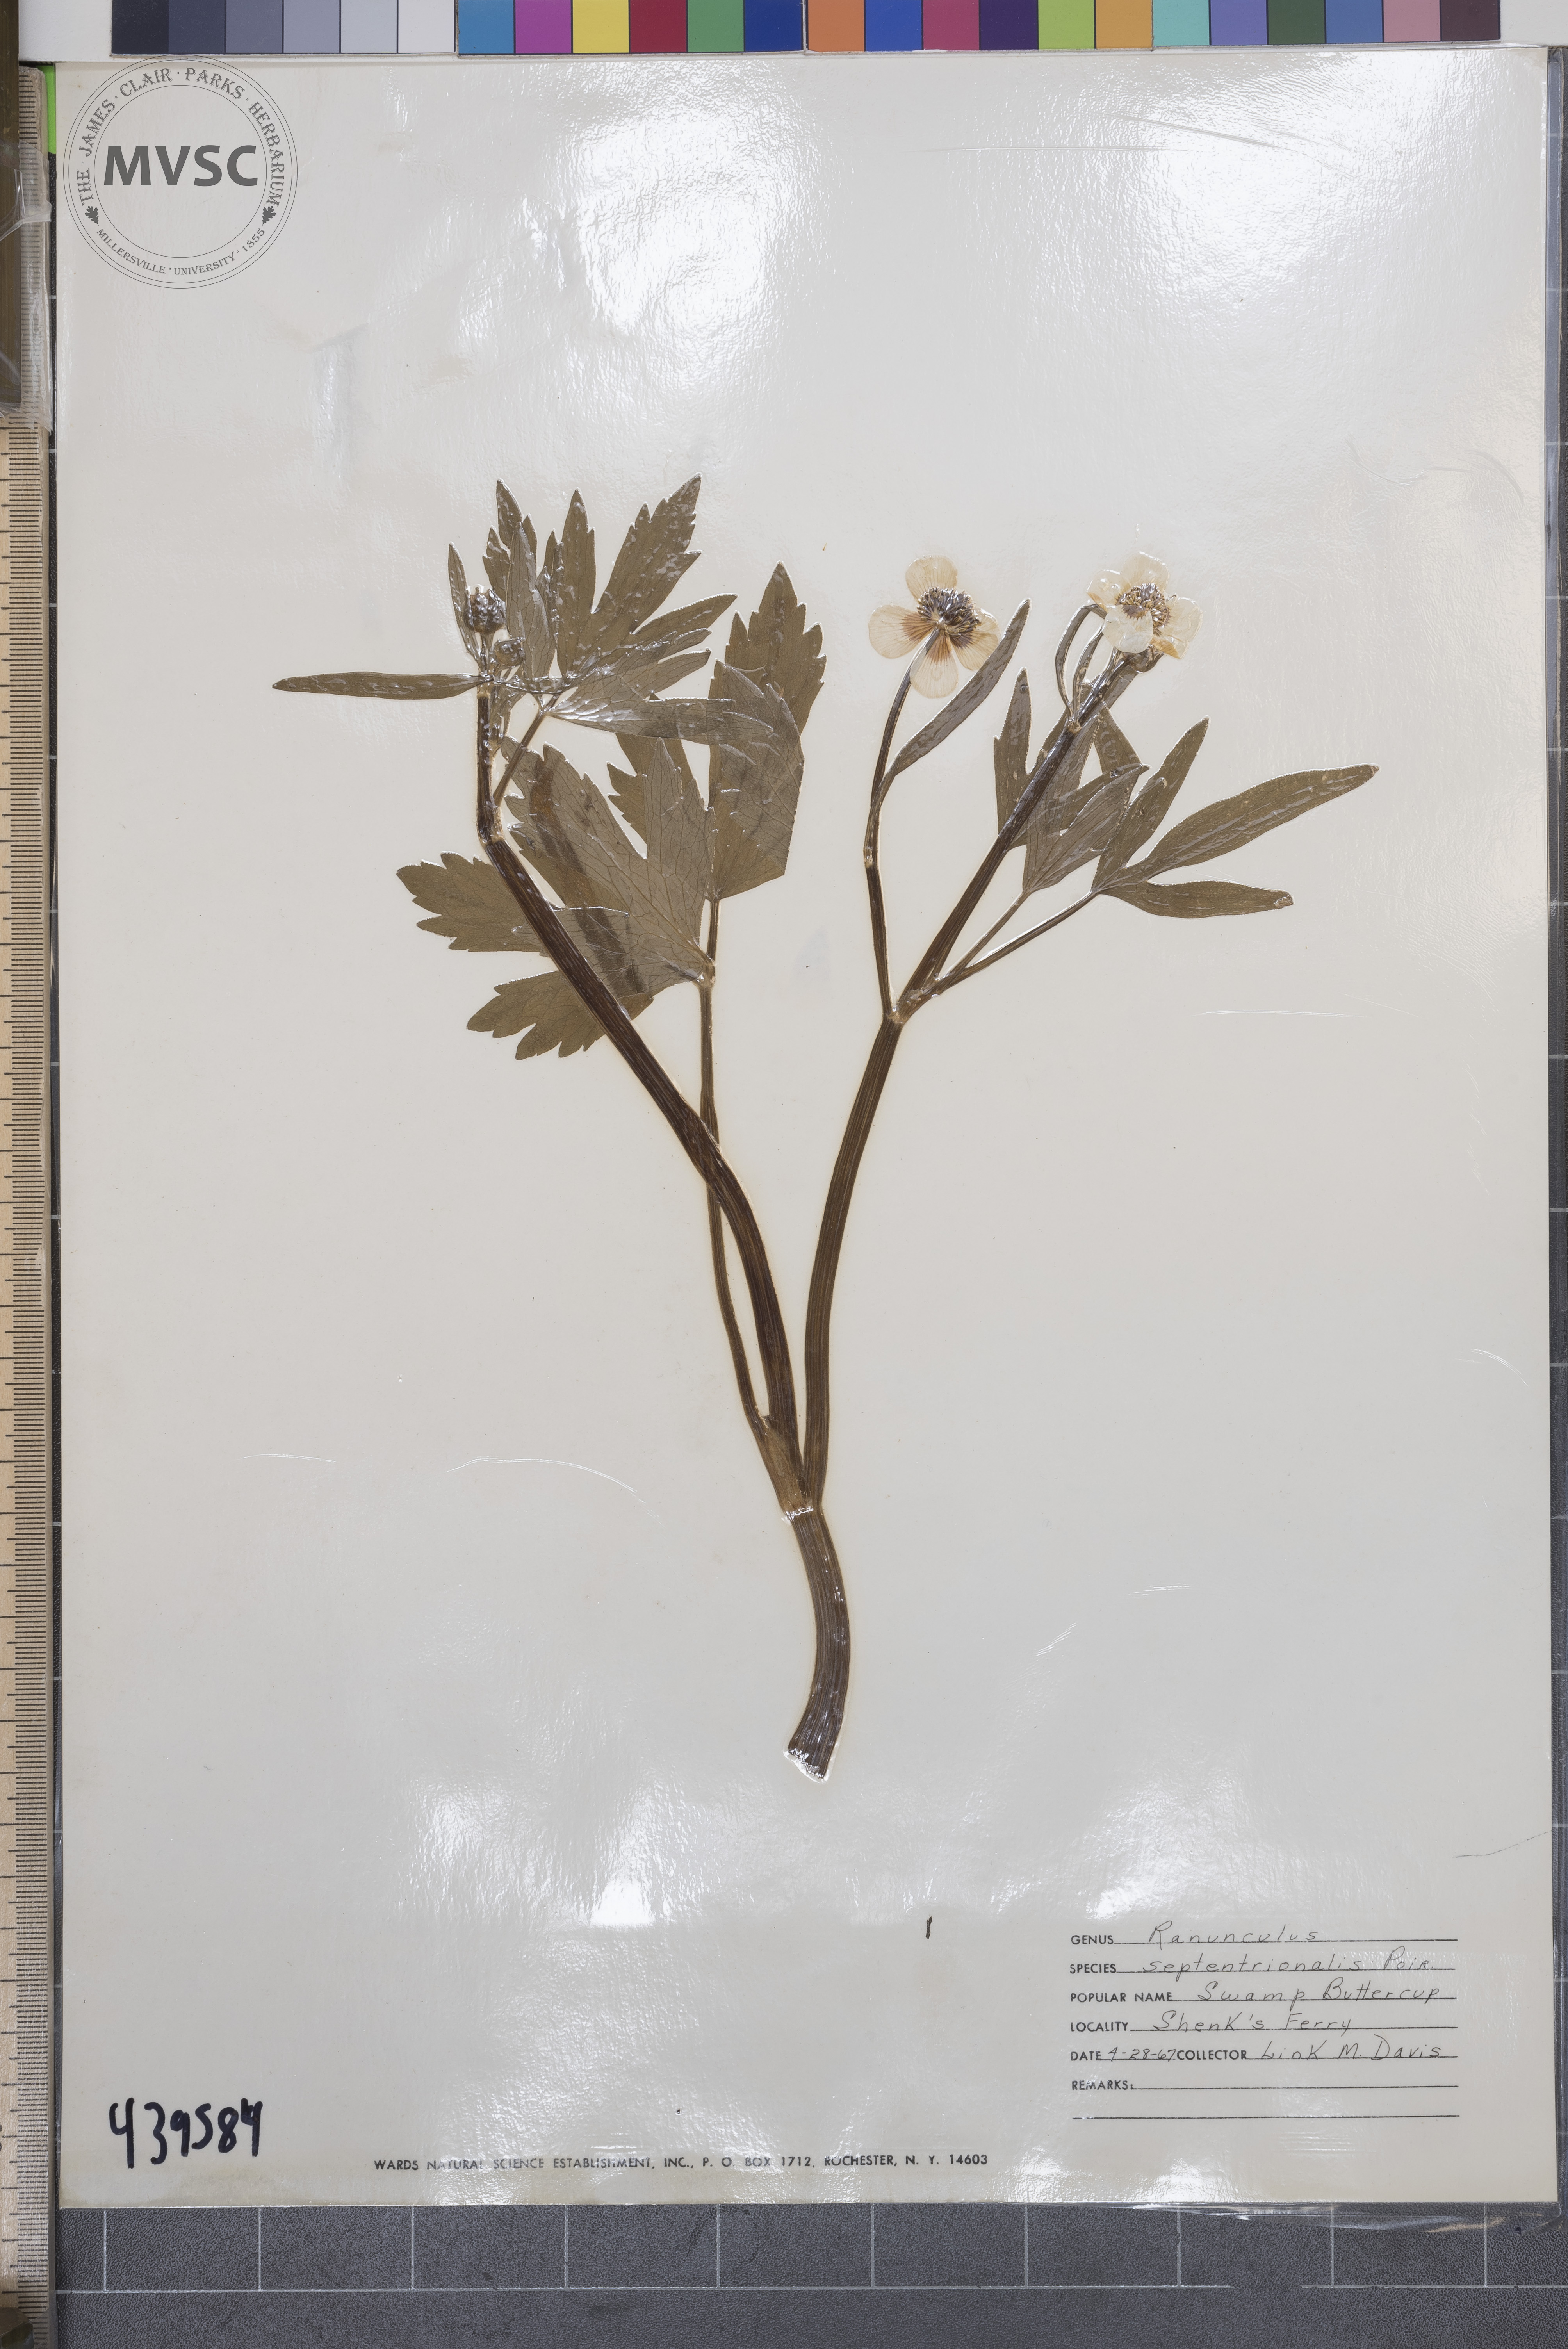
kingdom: Plantae
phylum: Tracheophyta
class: Magnoliopsida
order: Ranunculales
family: Ranunculaceae
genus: Ranunculus
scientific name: Ranunculus hispidus
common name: Bristly buttercup
